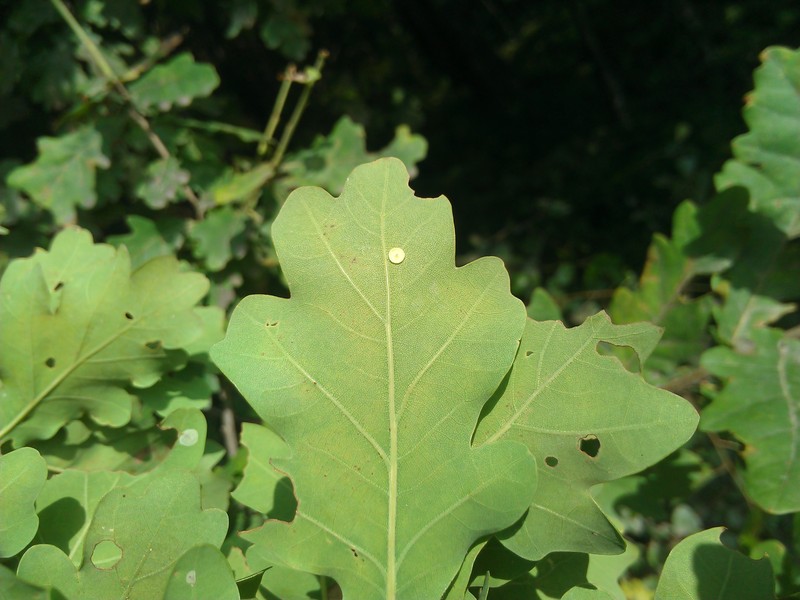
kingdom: Animalia
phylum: Arthropoda
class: Insecta
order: Hymenoptera
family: Cynipidae
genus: Neuroterus
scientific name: Neuroterus tricolor
